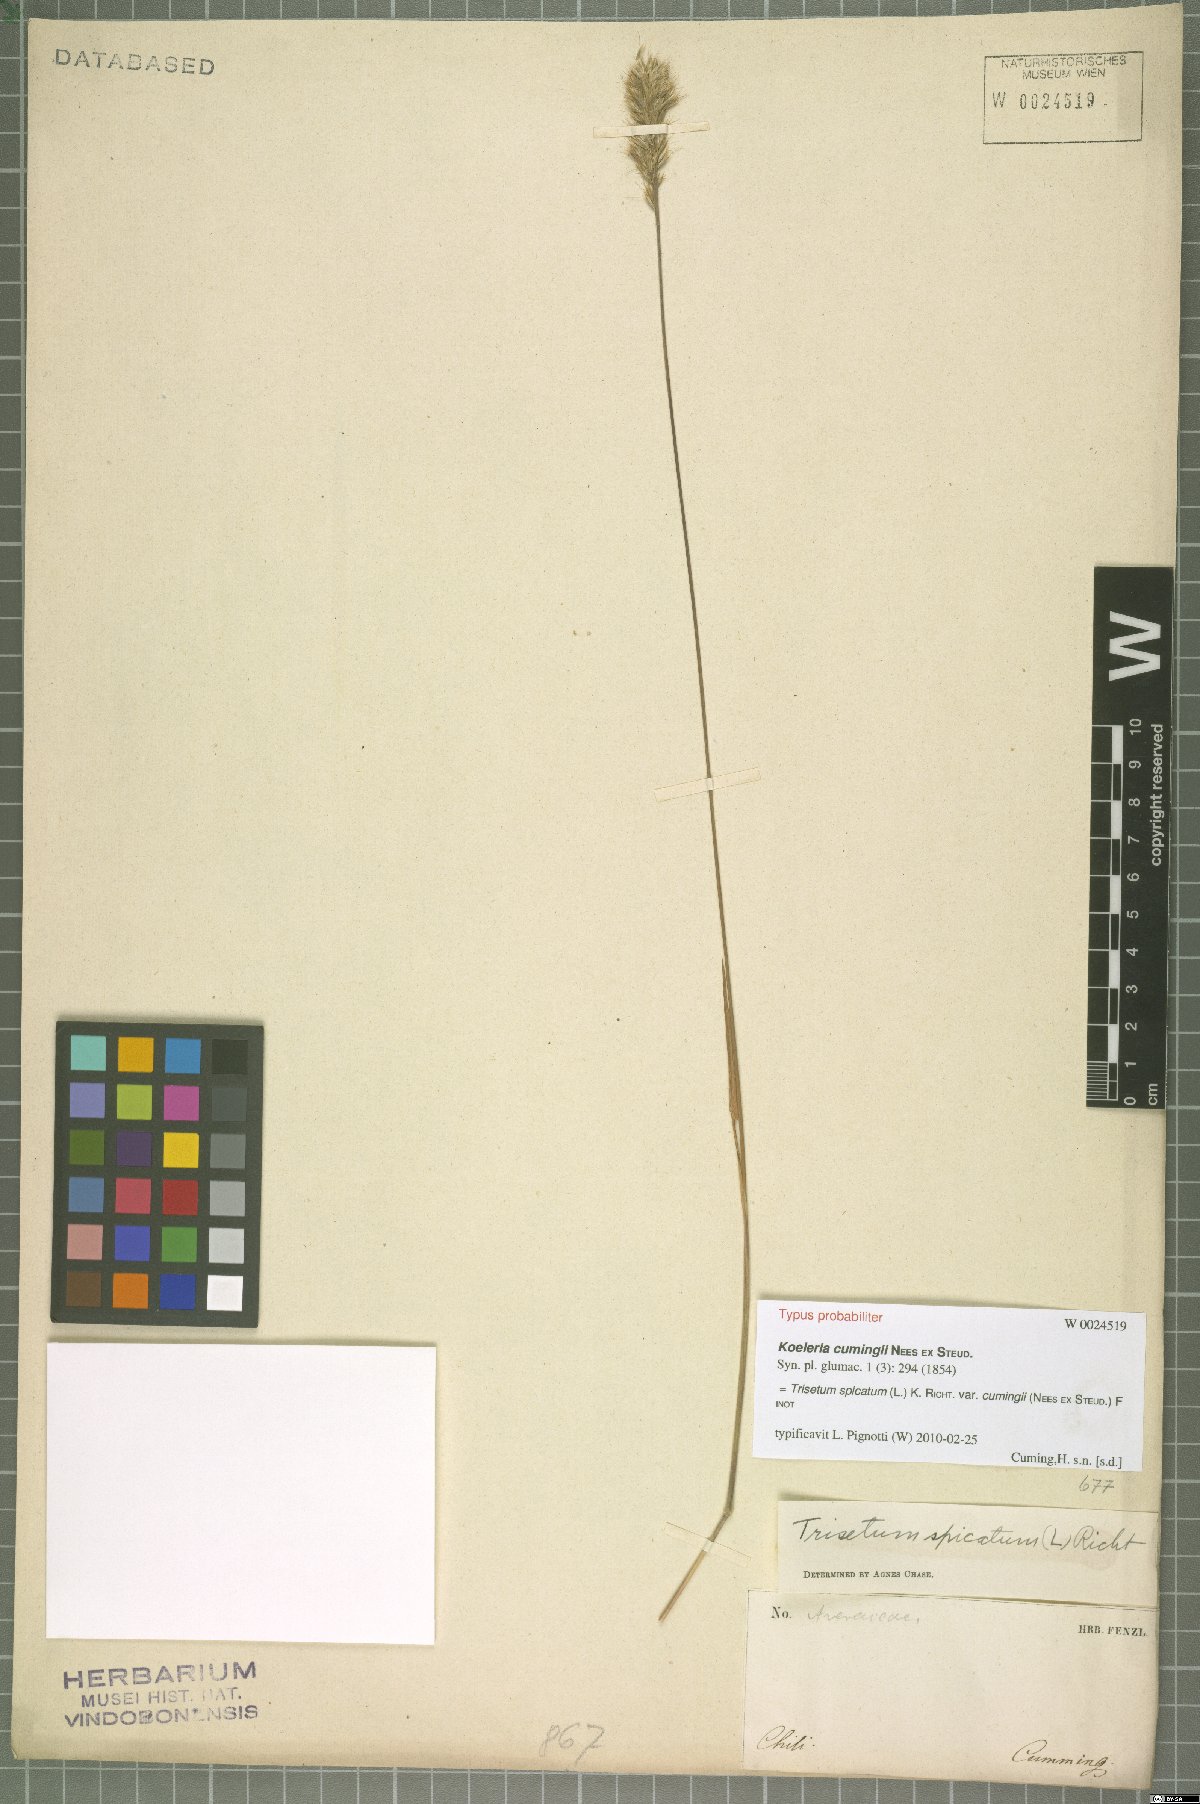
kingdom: Plantae
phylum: Tracheophyta
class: Liliopsida
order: Poales
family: Poaceae
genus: Koeleria
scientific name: Koeleria cumingii
